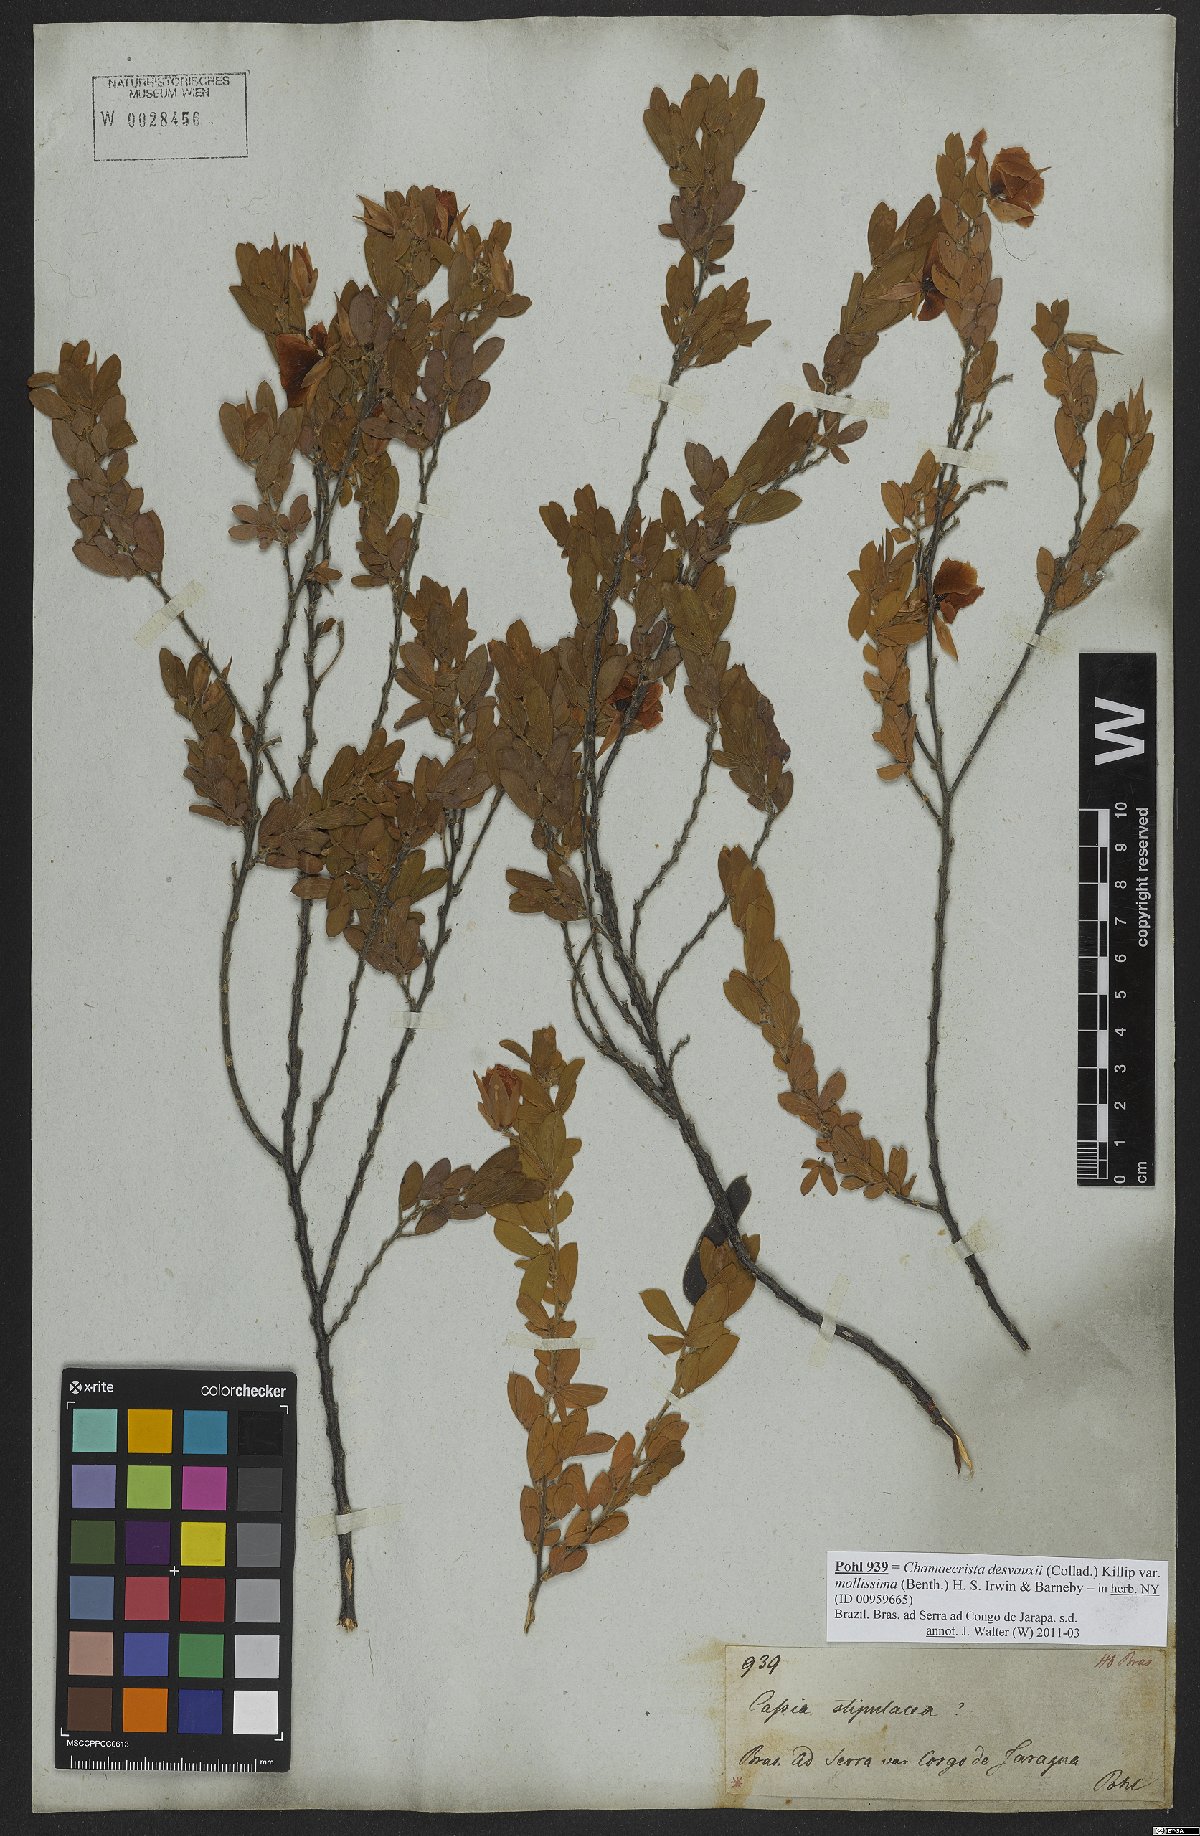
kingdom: Plantae
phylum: Tracheophyta
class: Magnoliopsida
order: Fabales
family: Fabaceae
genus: Chamaecrista
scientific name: Chamaecrista desvauxii
